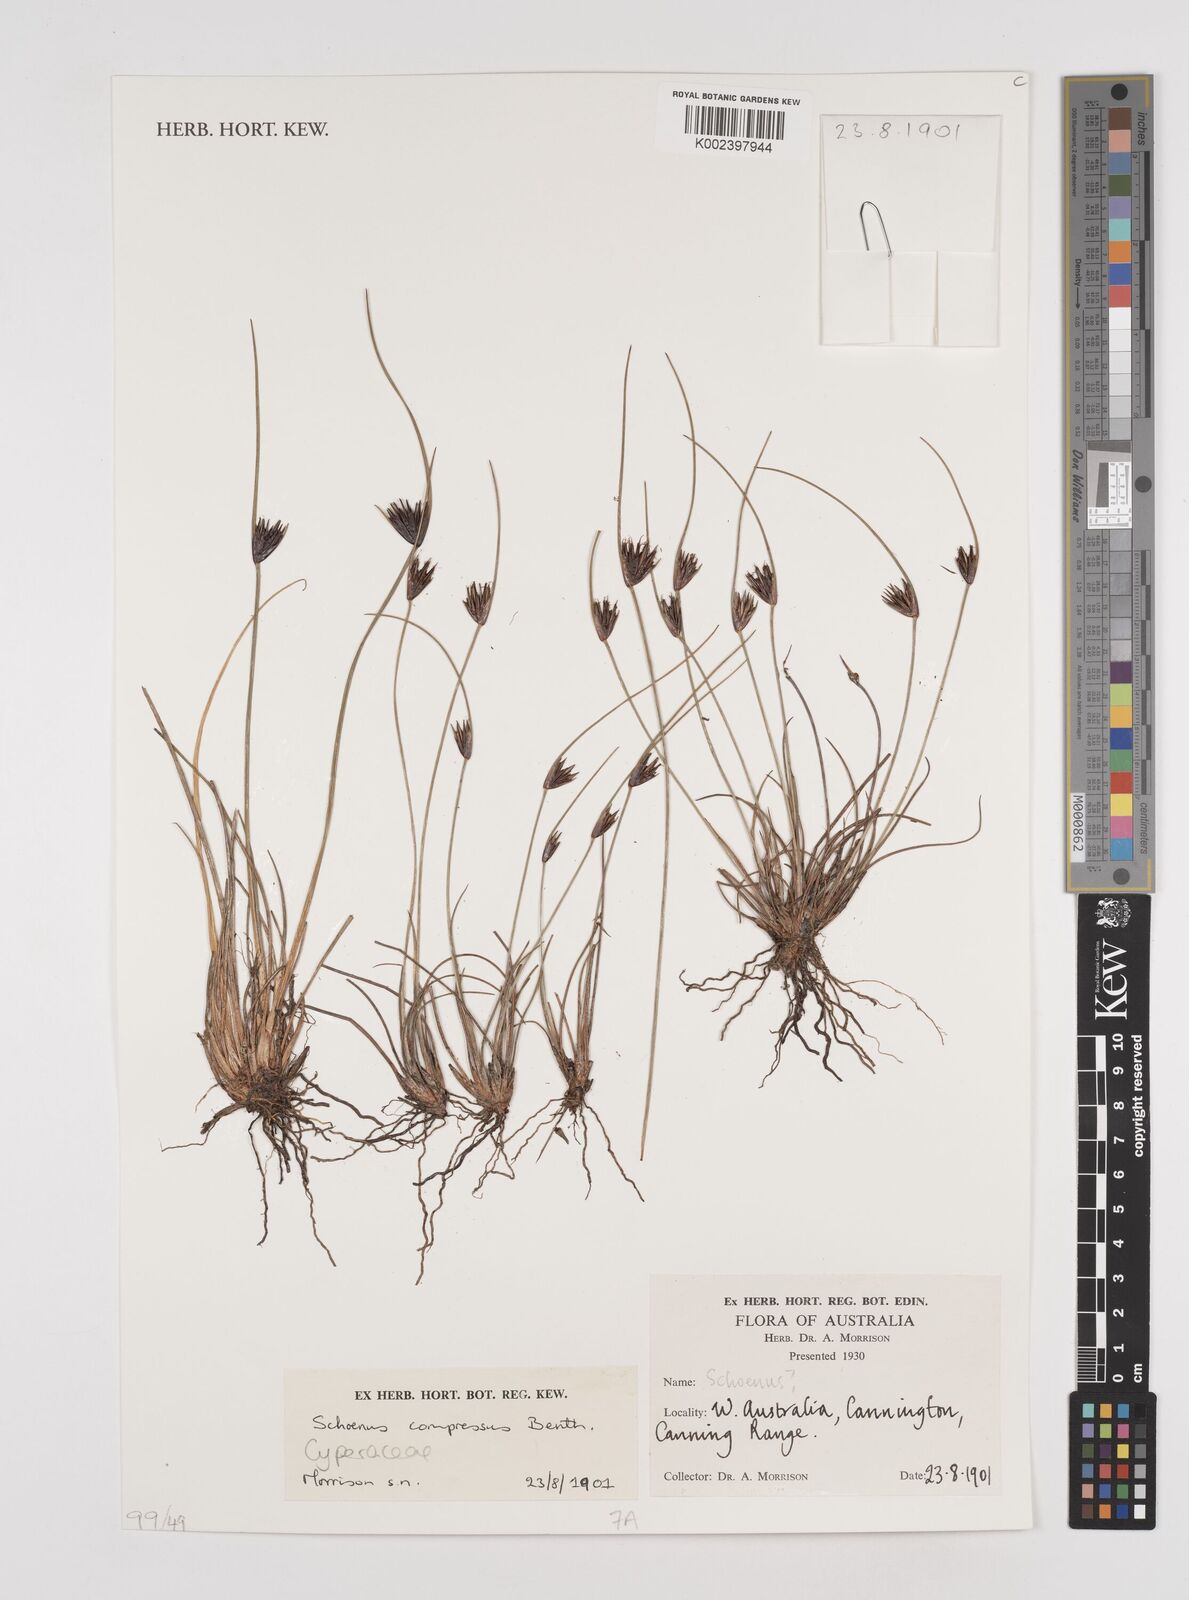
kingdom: Plantae
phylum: Tracheophyta
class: Liliopsida
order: Poales
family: Cyperaceae
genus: Schoenus
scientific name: Schoenus benthamii
